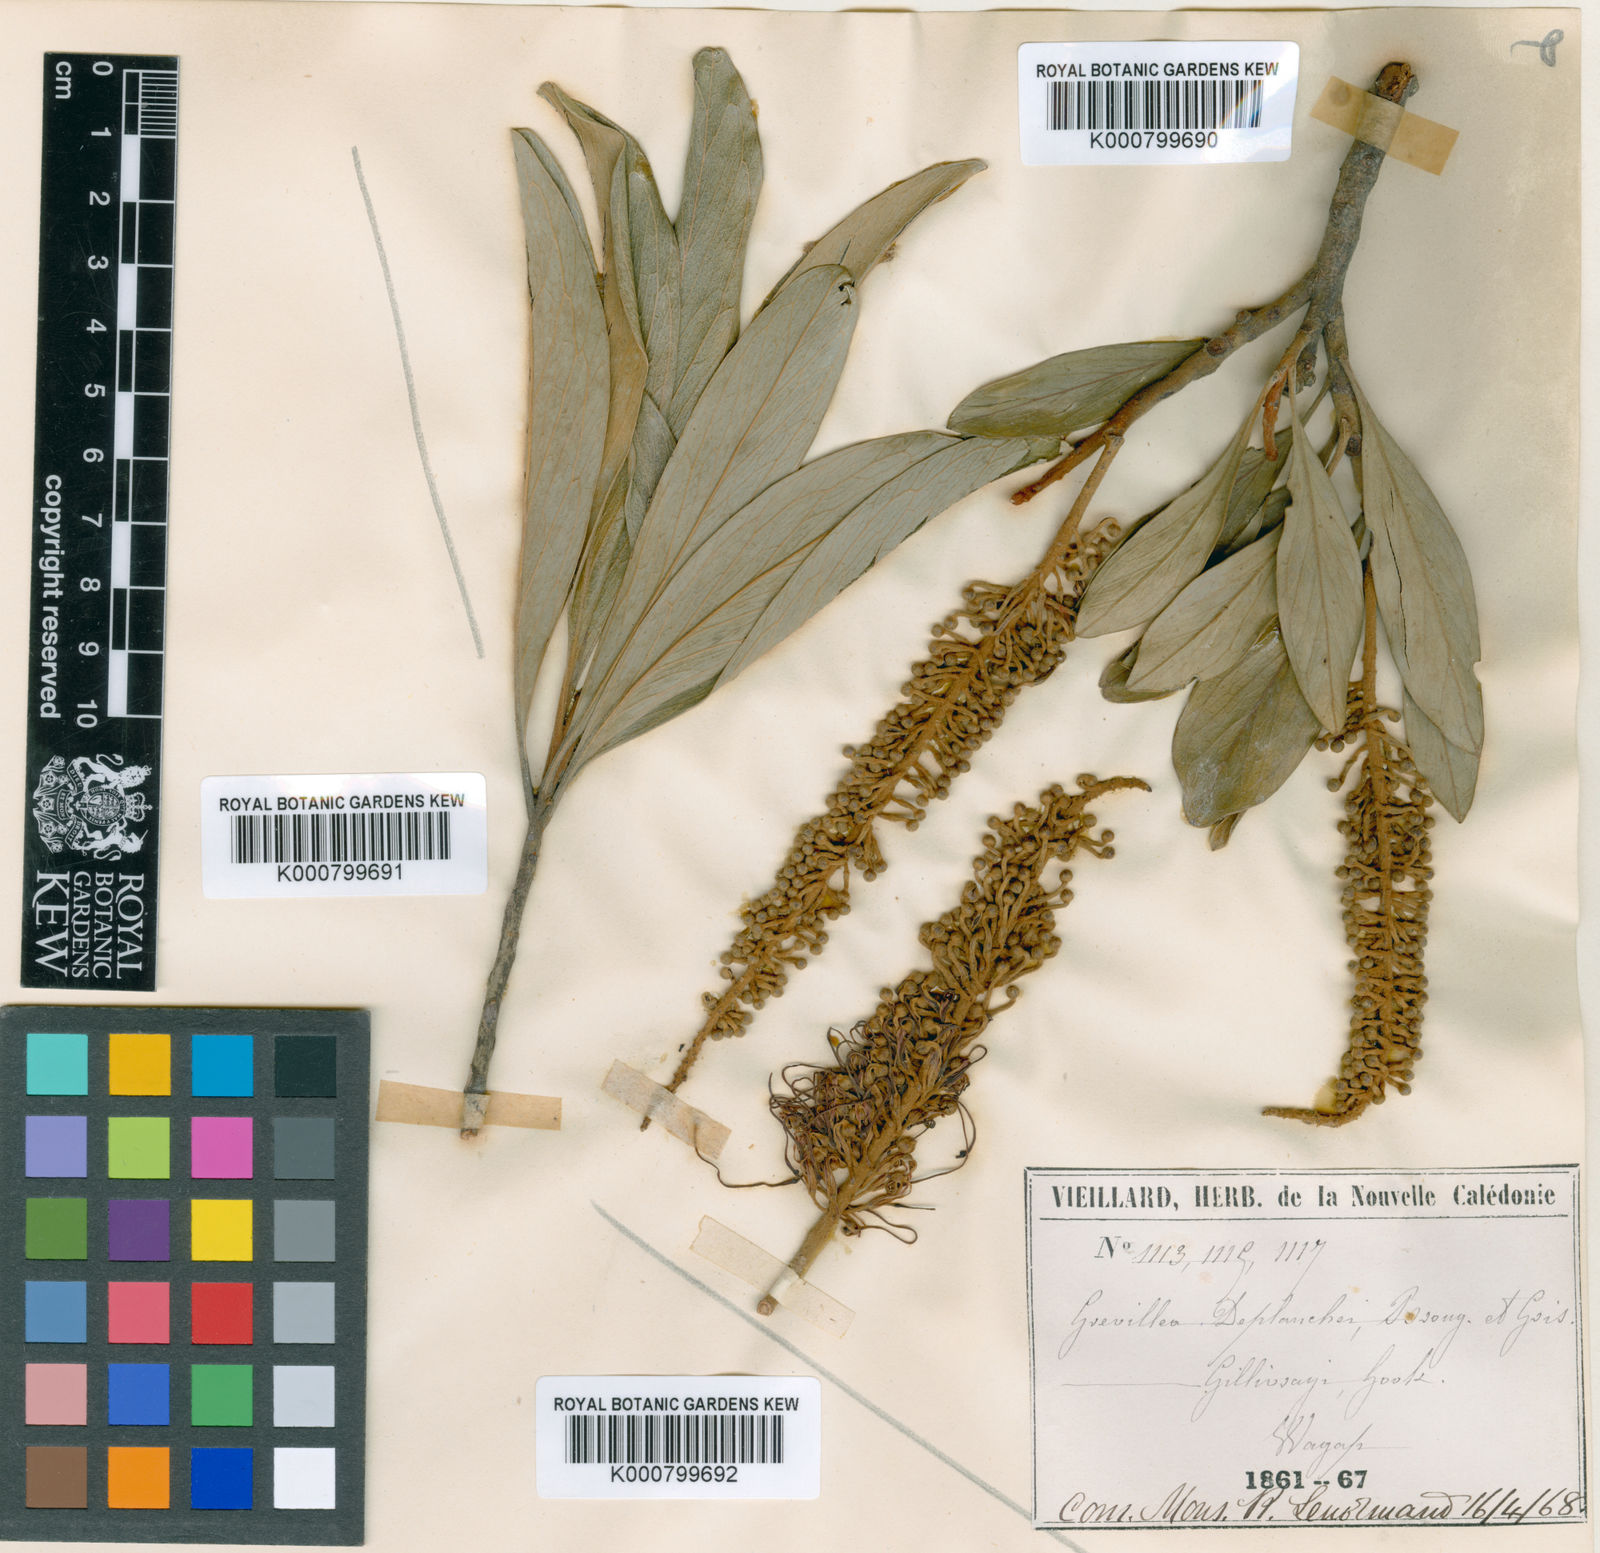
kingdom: Plantae
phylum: Tracheophyta
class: Magnoliopsida
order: Proteales
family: Proteaceae
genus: Grevillea
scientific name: Grevillea gillivrayi
